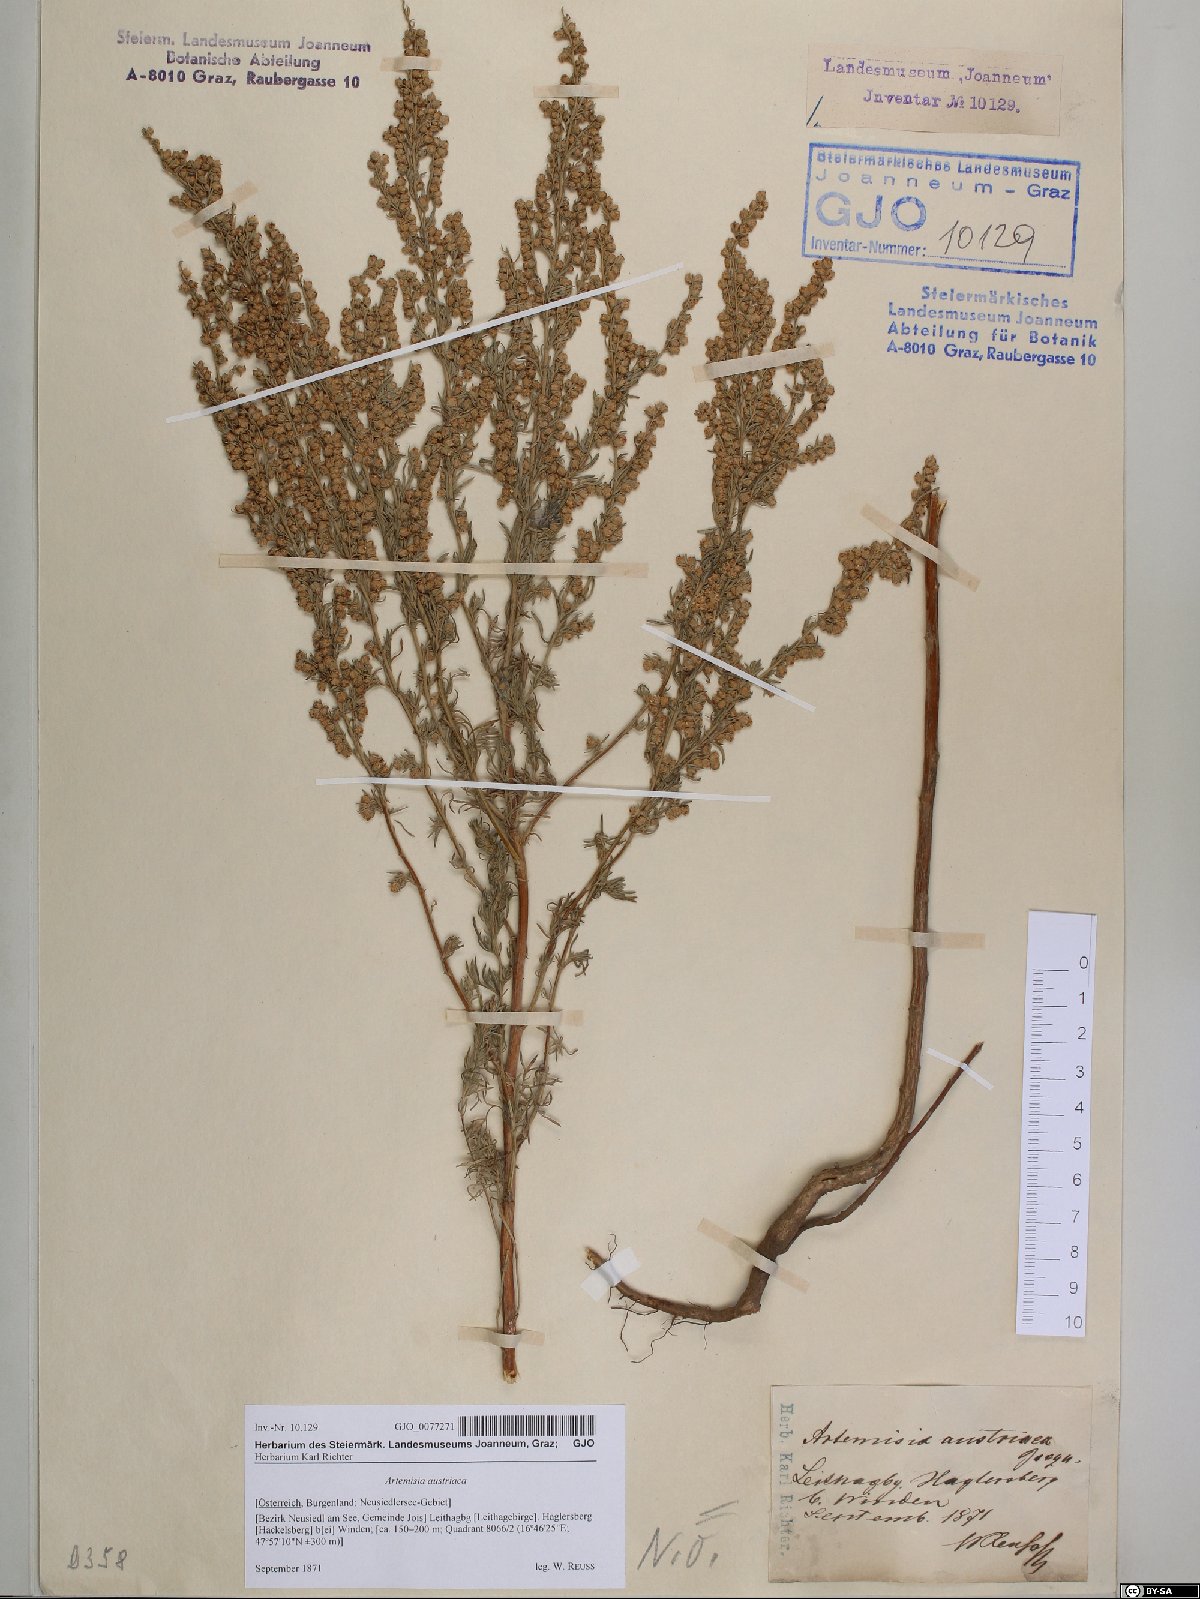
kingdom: Plantae
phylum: Tracheophyta
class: Magnoliopsida
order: Asterales
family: Asteraceae
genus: Artemisia
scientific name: Artemisia austriaca
